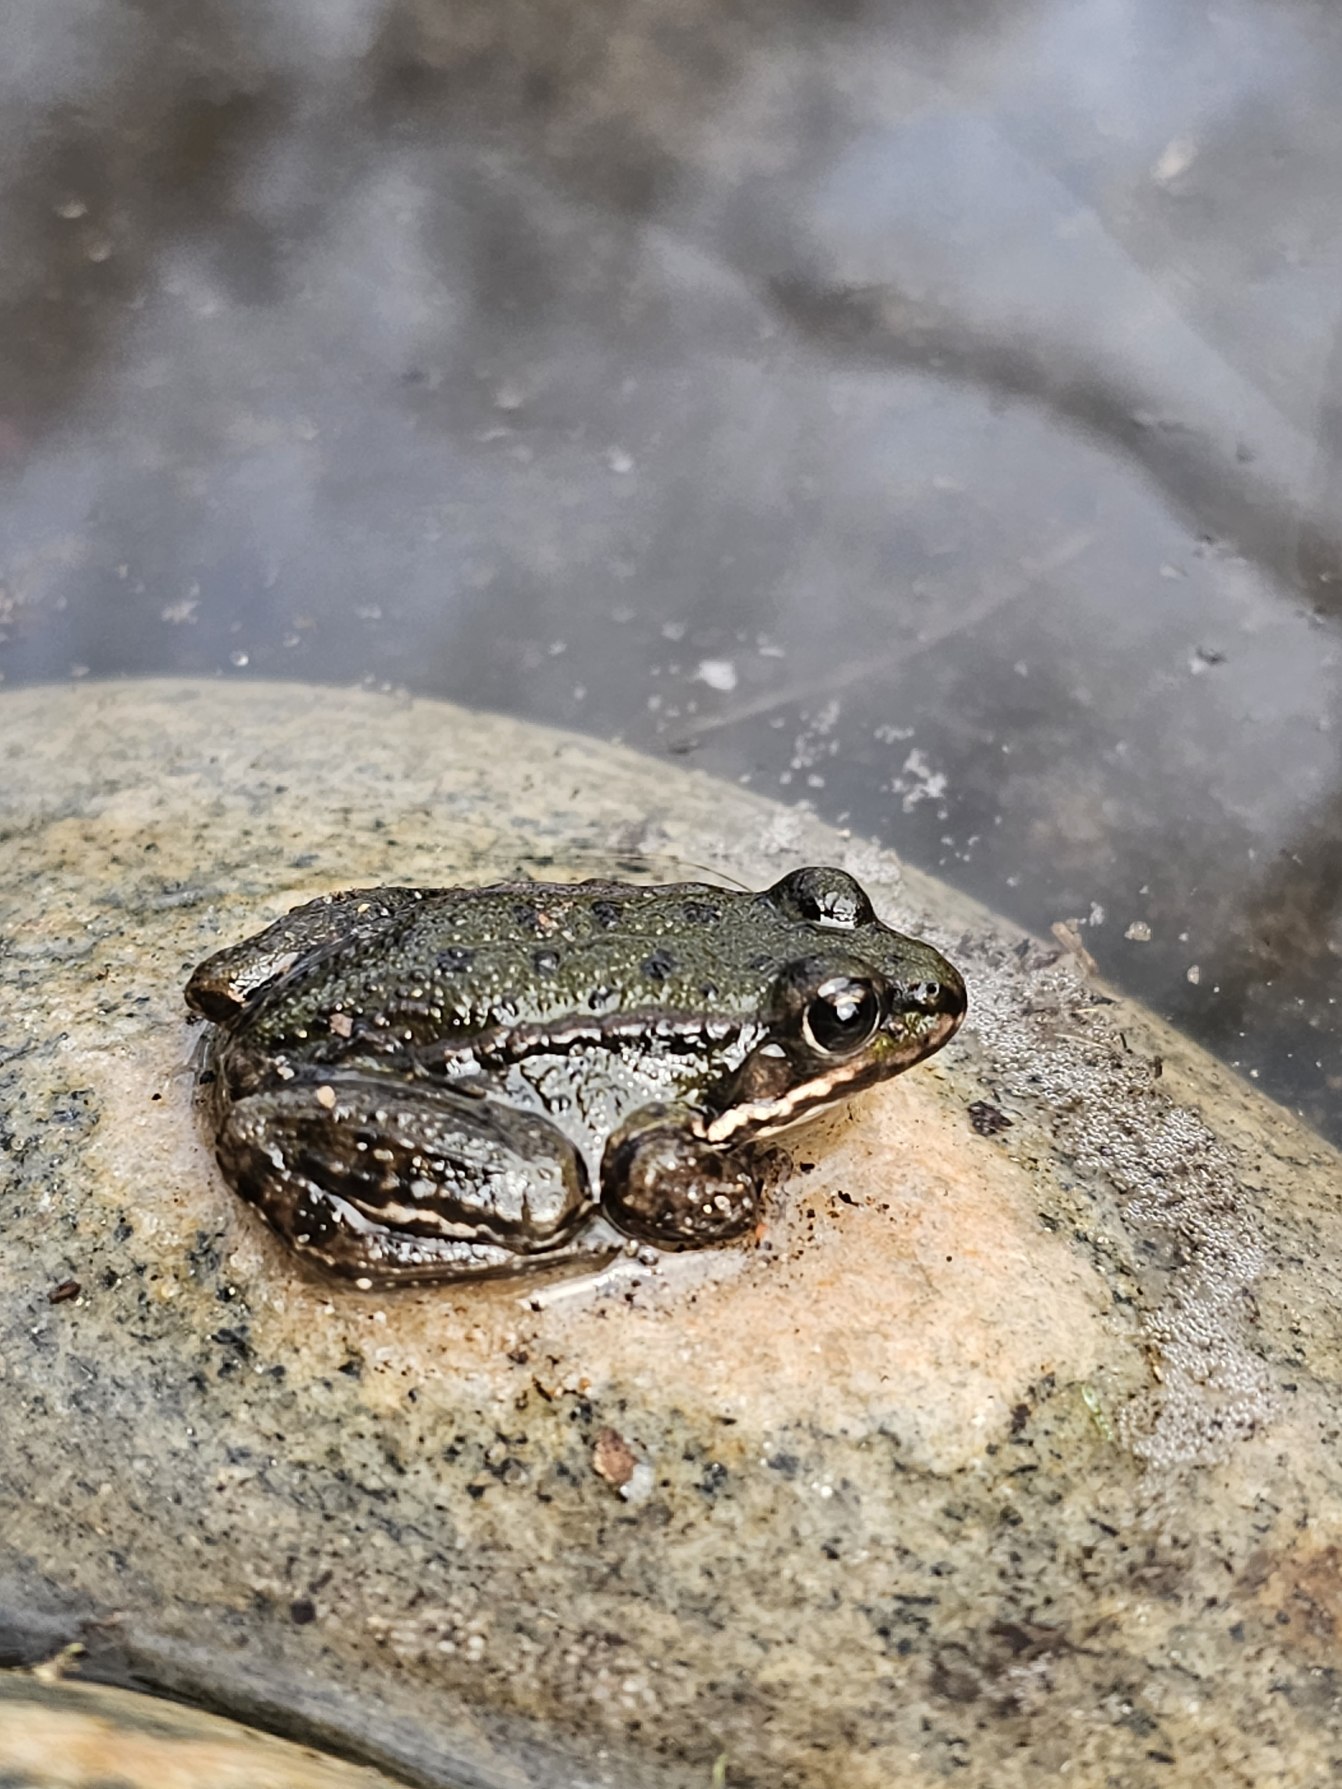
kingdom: Animalia
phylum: Chordata
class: Amphibia
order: Anura
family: Ranidae
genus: Pelophylax
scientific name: Pelophylax lessonae
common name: Grøn frø
